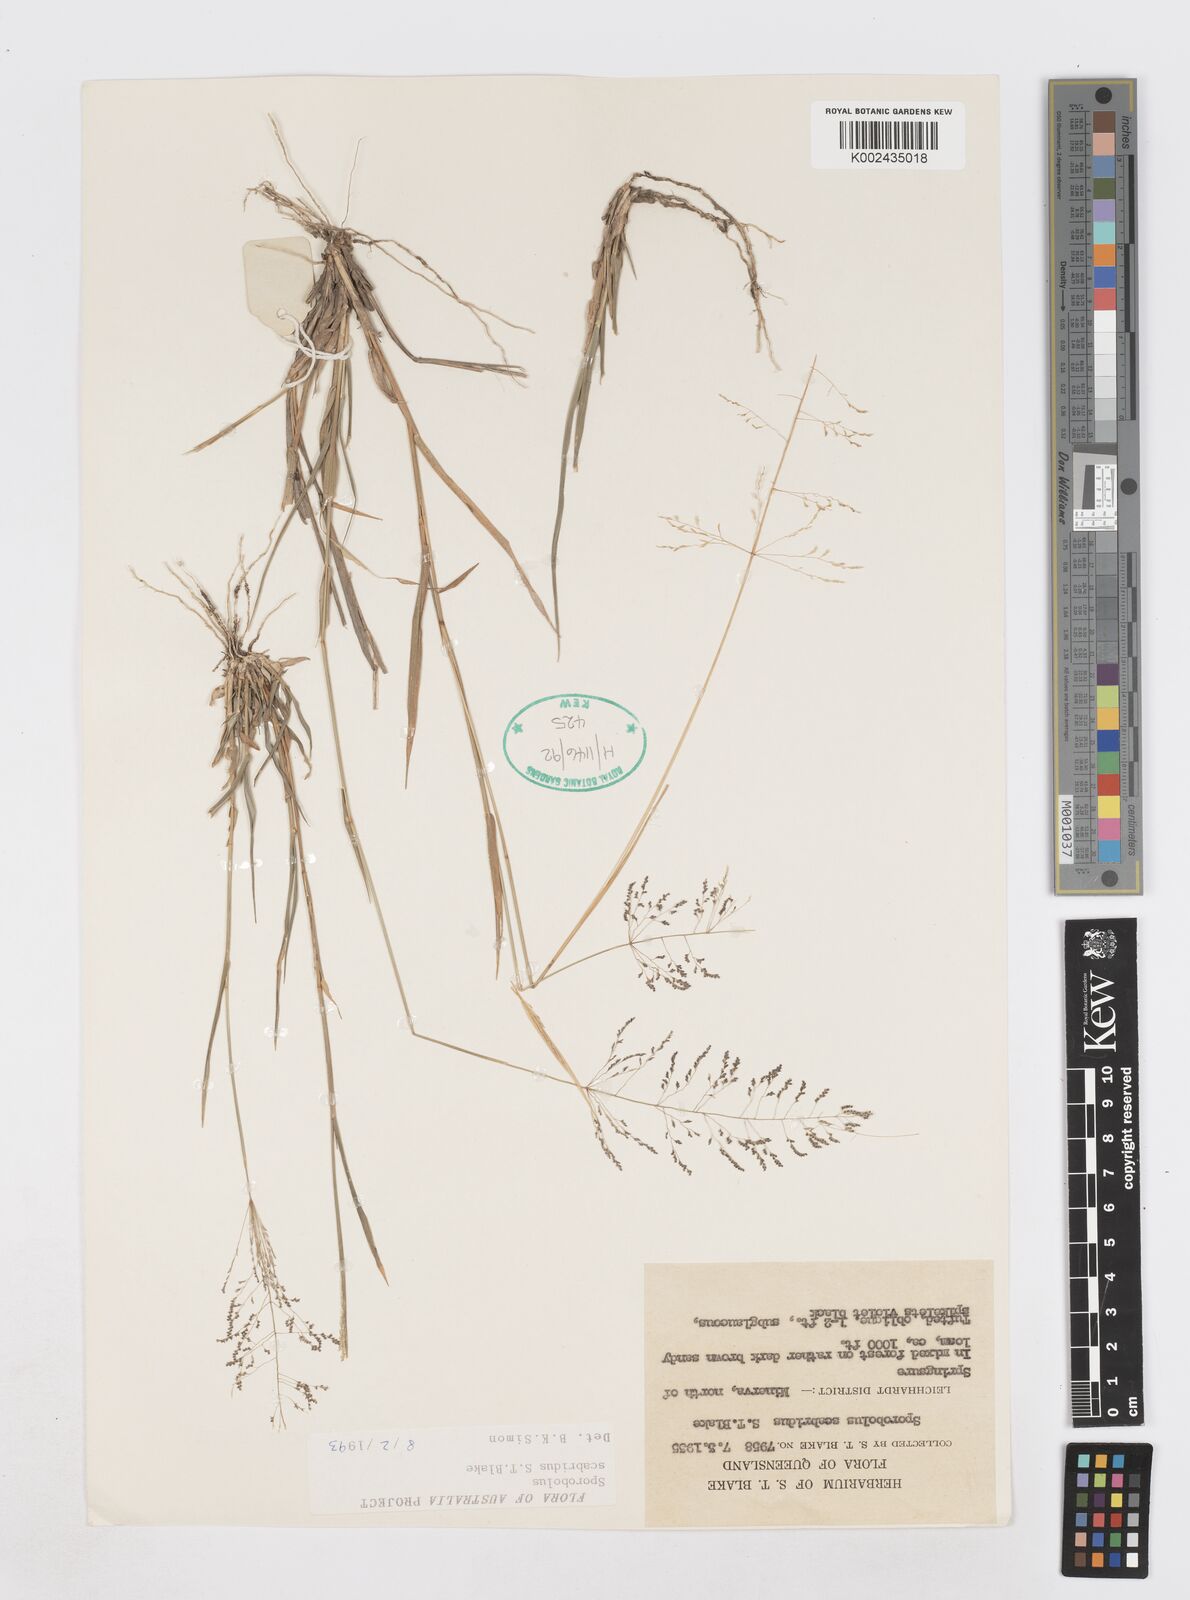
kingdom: Plantae
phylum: Tracheophyta
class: Liliopsida
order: Poales
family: Poaceae
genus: Sporobolus
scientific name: Sporobolus scabridus
